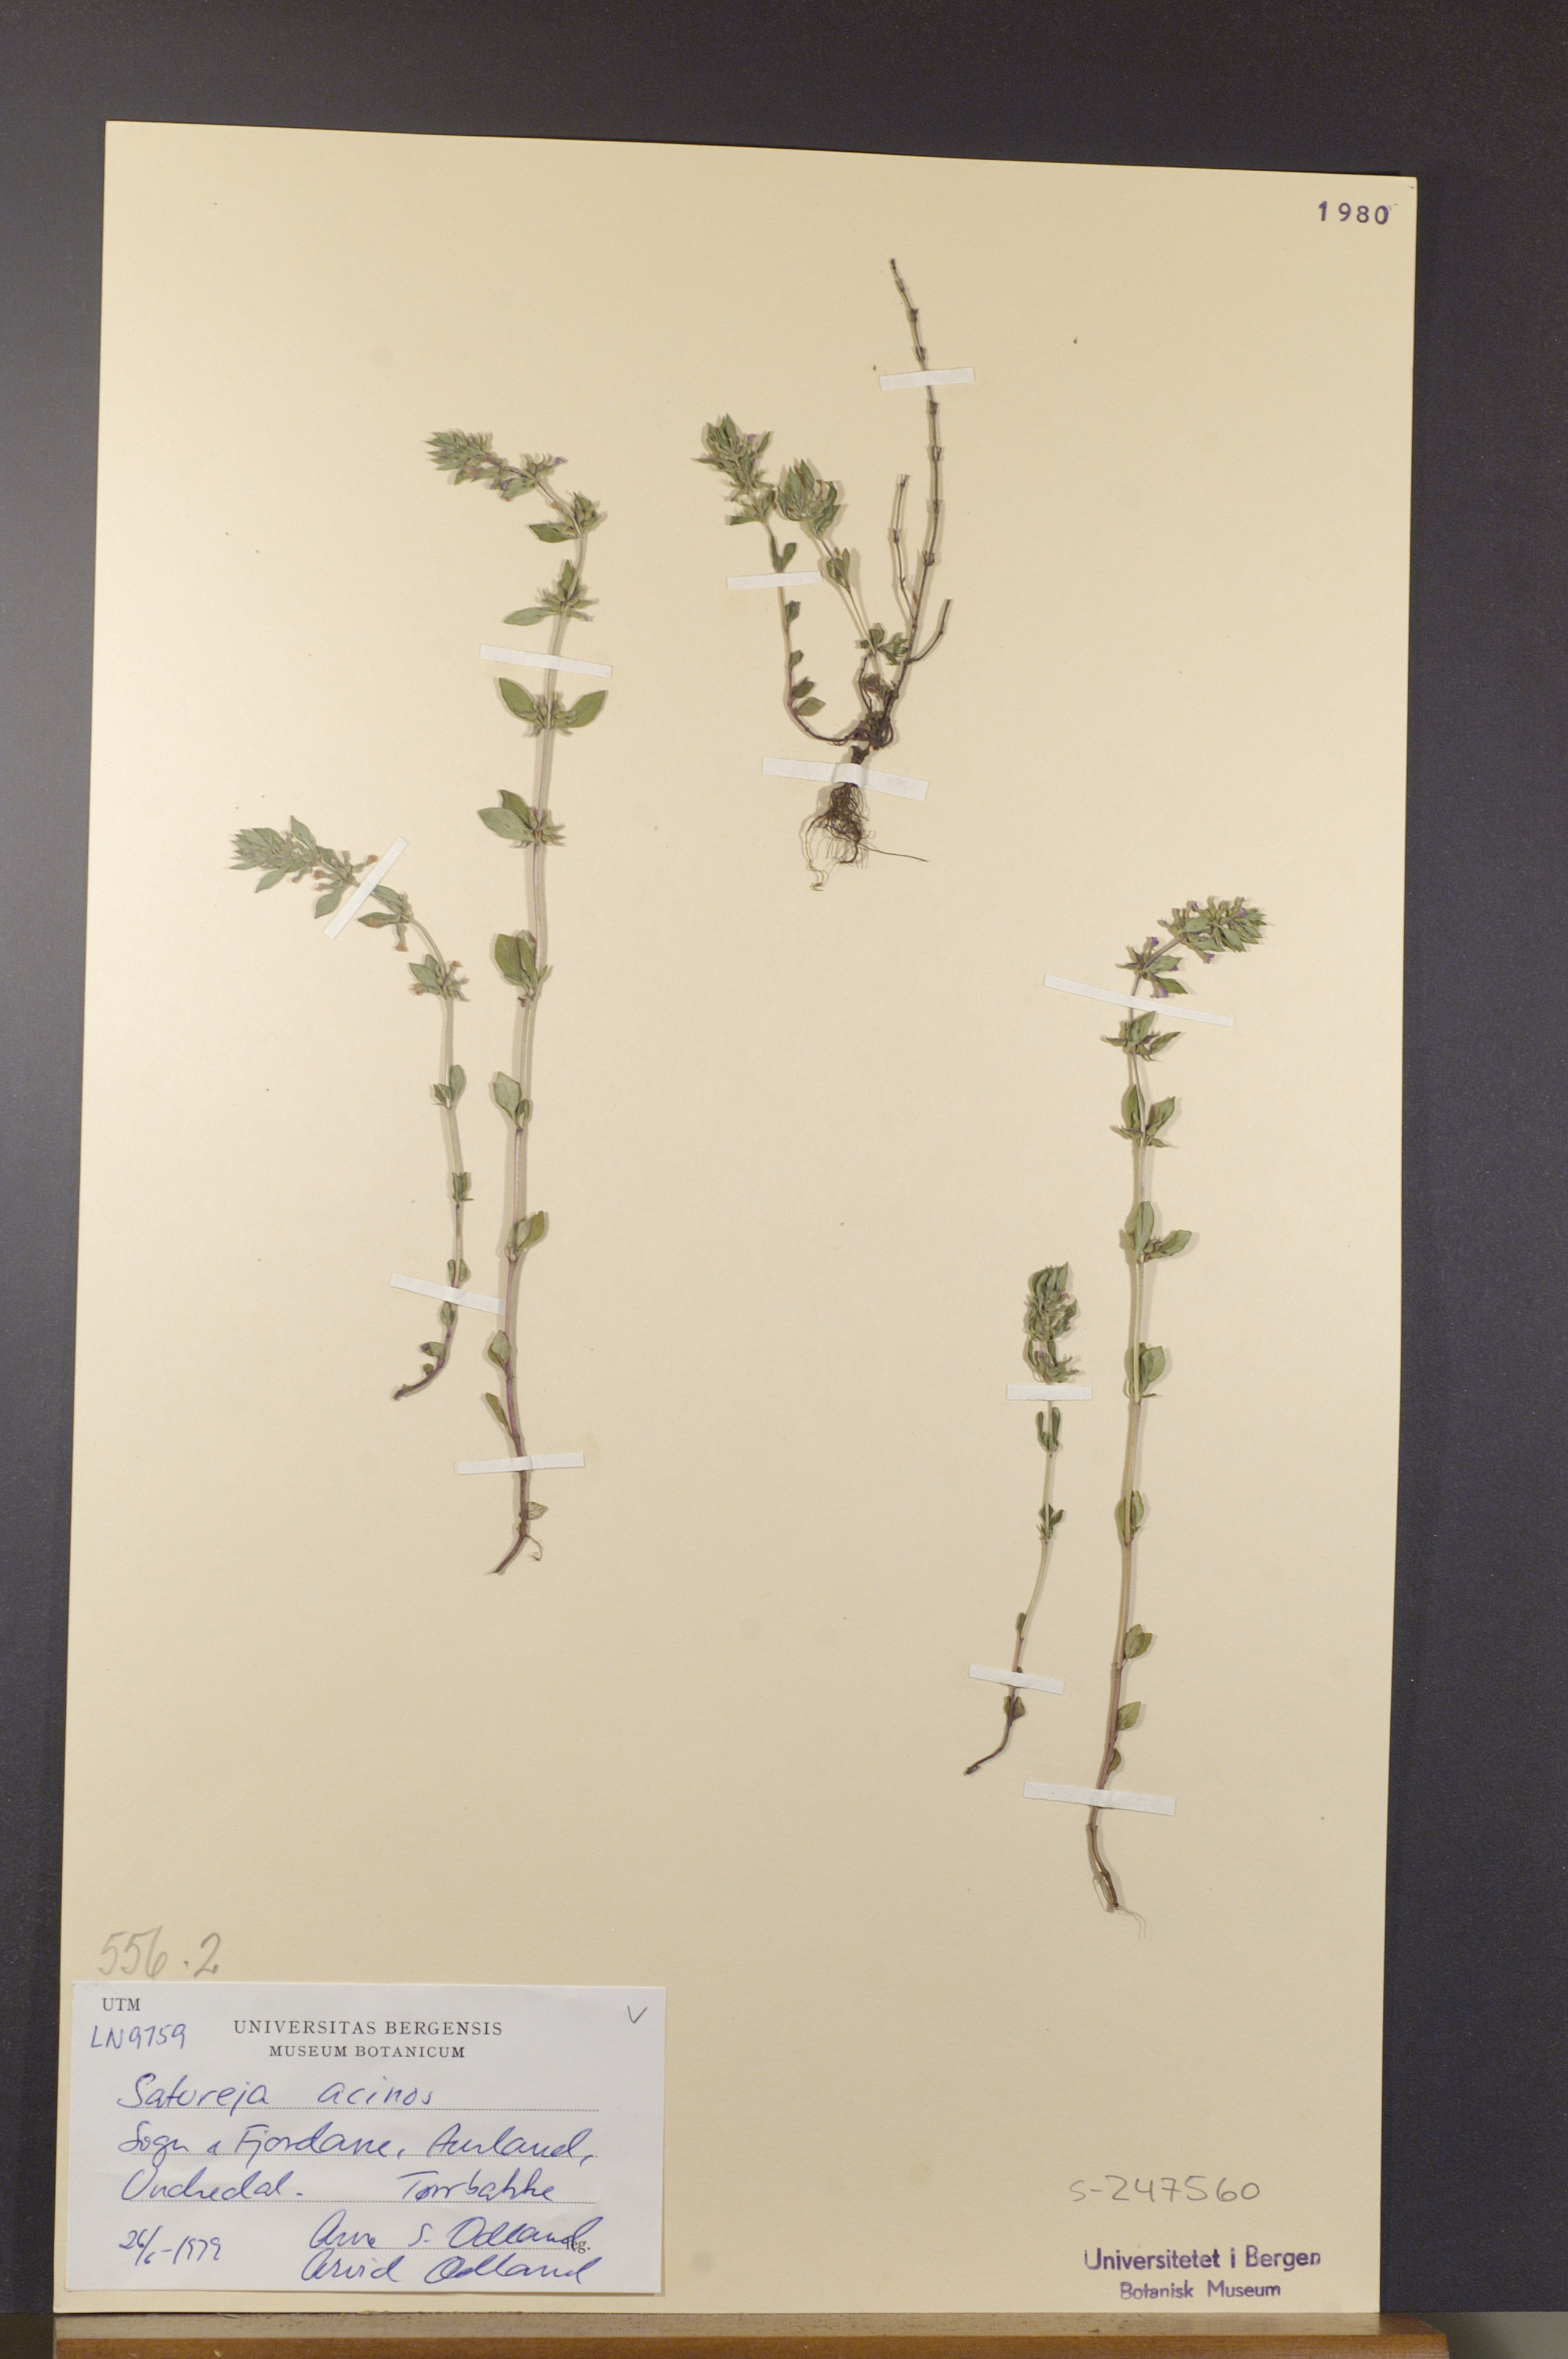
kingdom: Plantae
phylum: Tracheophyta
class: Magnoliopsida
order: Lamiales
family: Lamiaceae
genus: Clinopodium
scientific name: Clinopodium acinos
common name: Basil thyme
